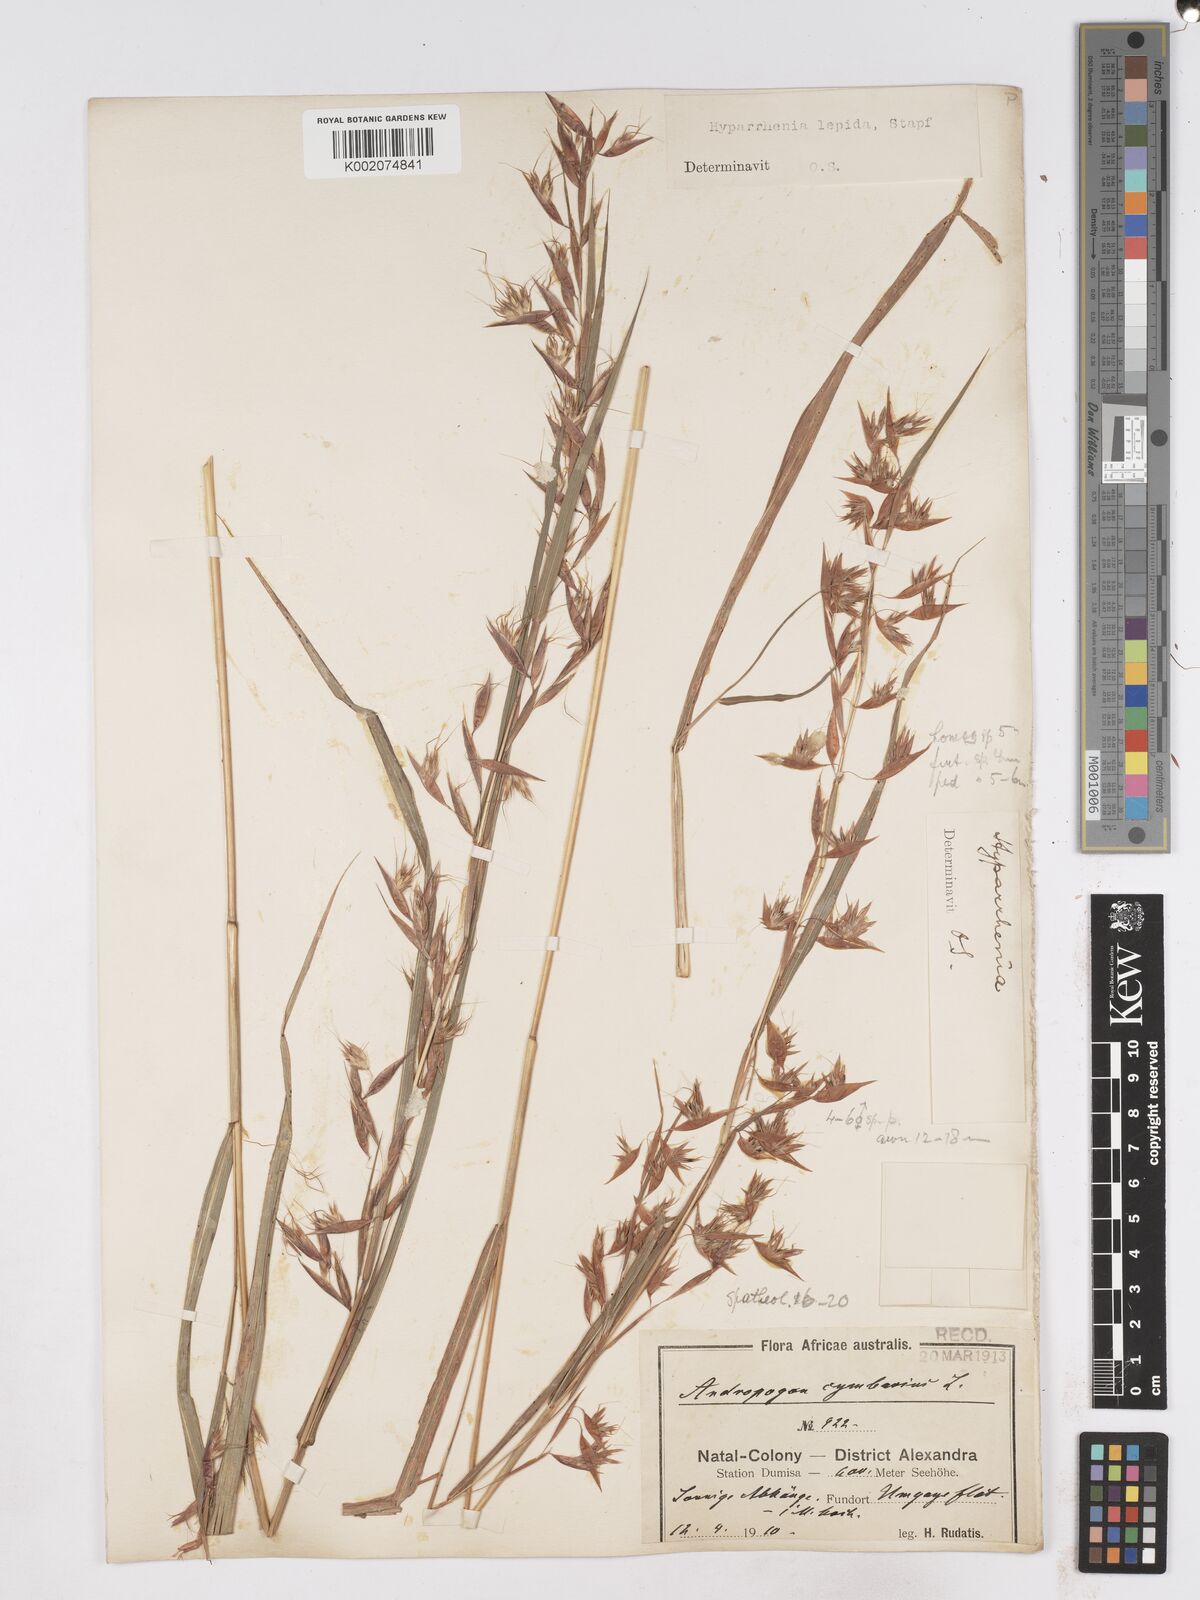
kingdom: Plantae
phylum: Tracheophyta
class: Liliopsida
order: Poales
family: Poaceae
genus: Hyparrhenia
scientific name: Hyparrhenia cymbaria
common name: Boat thatching grass
